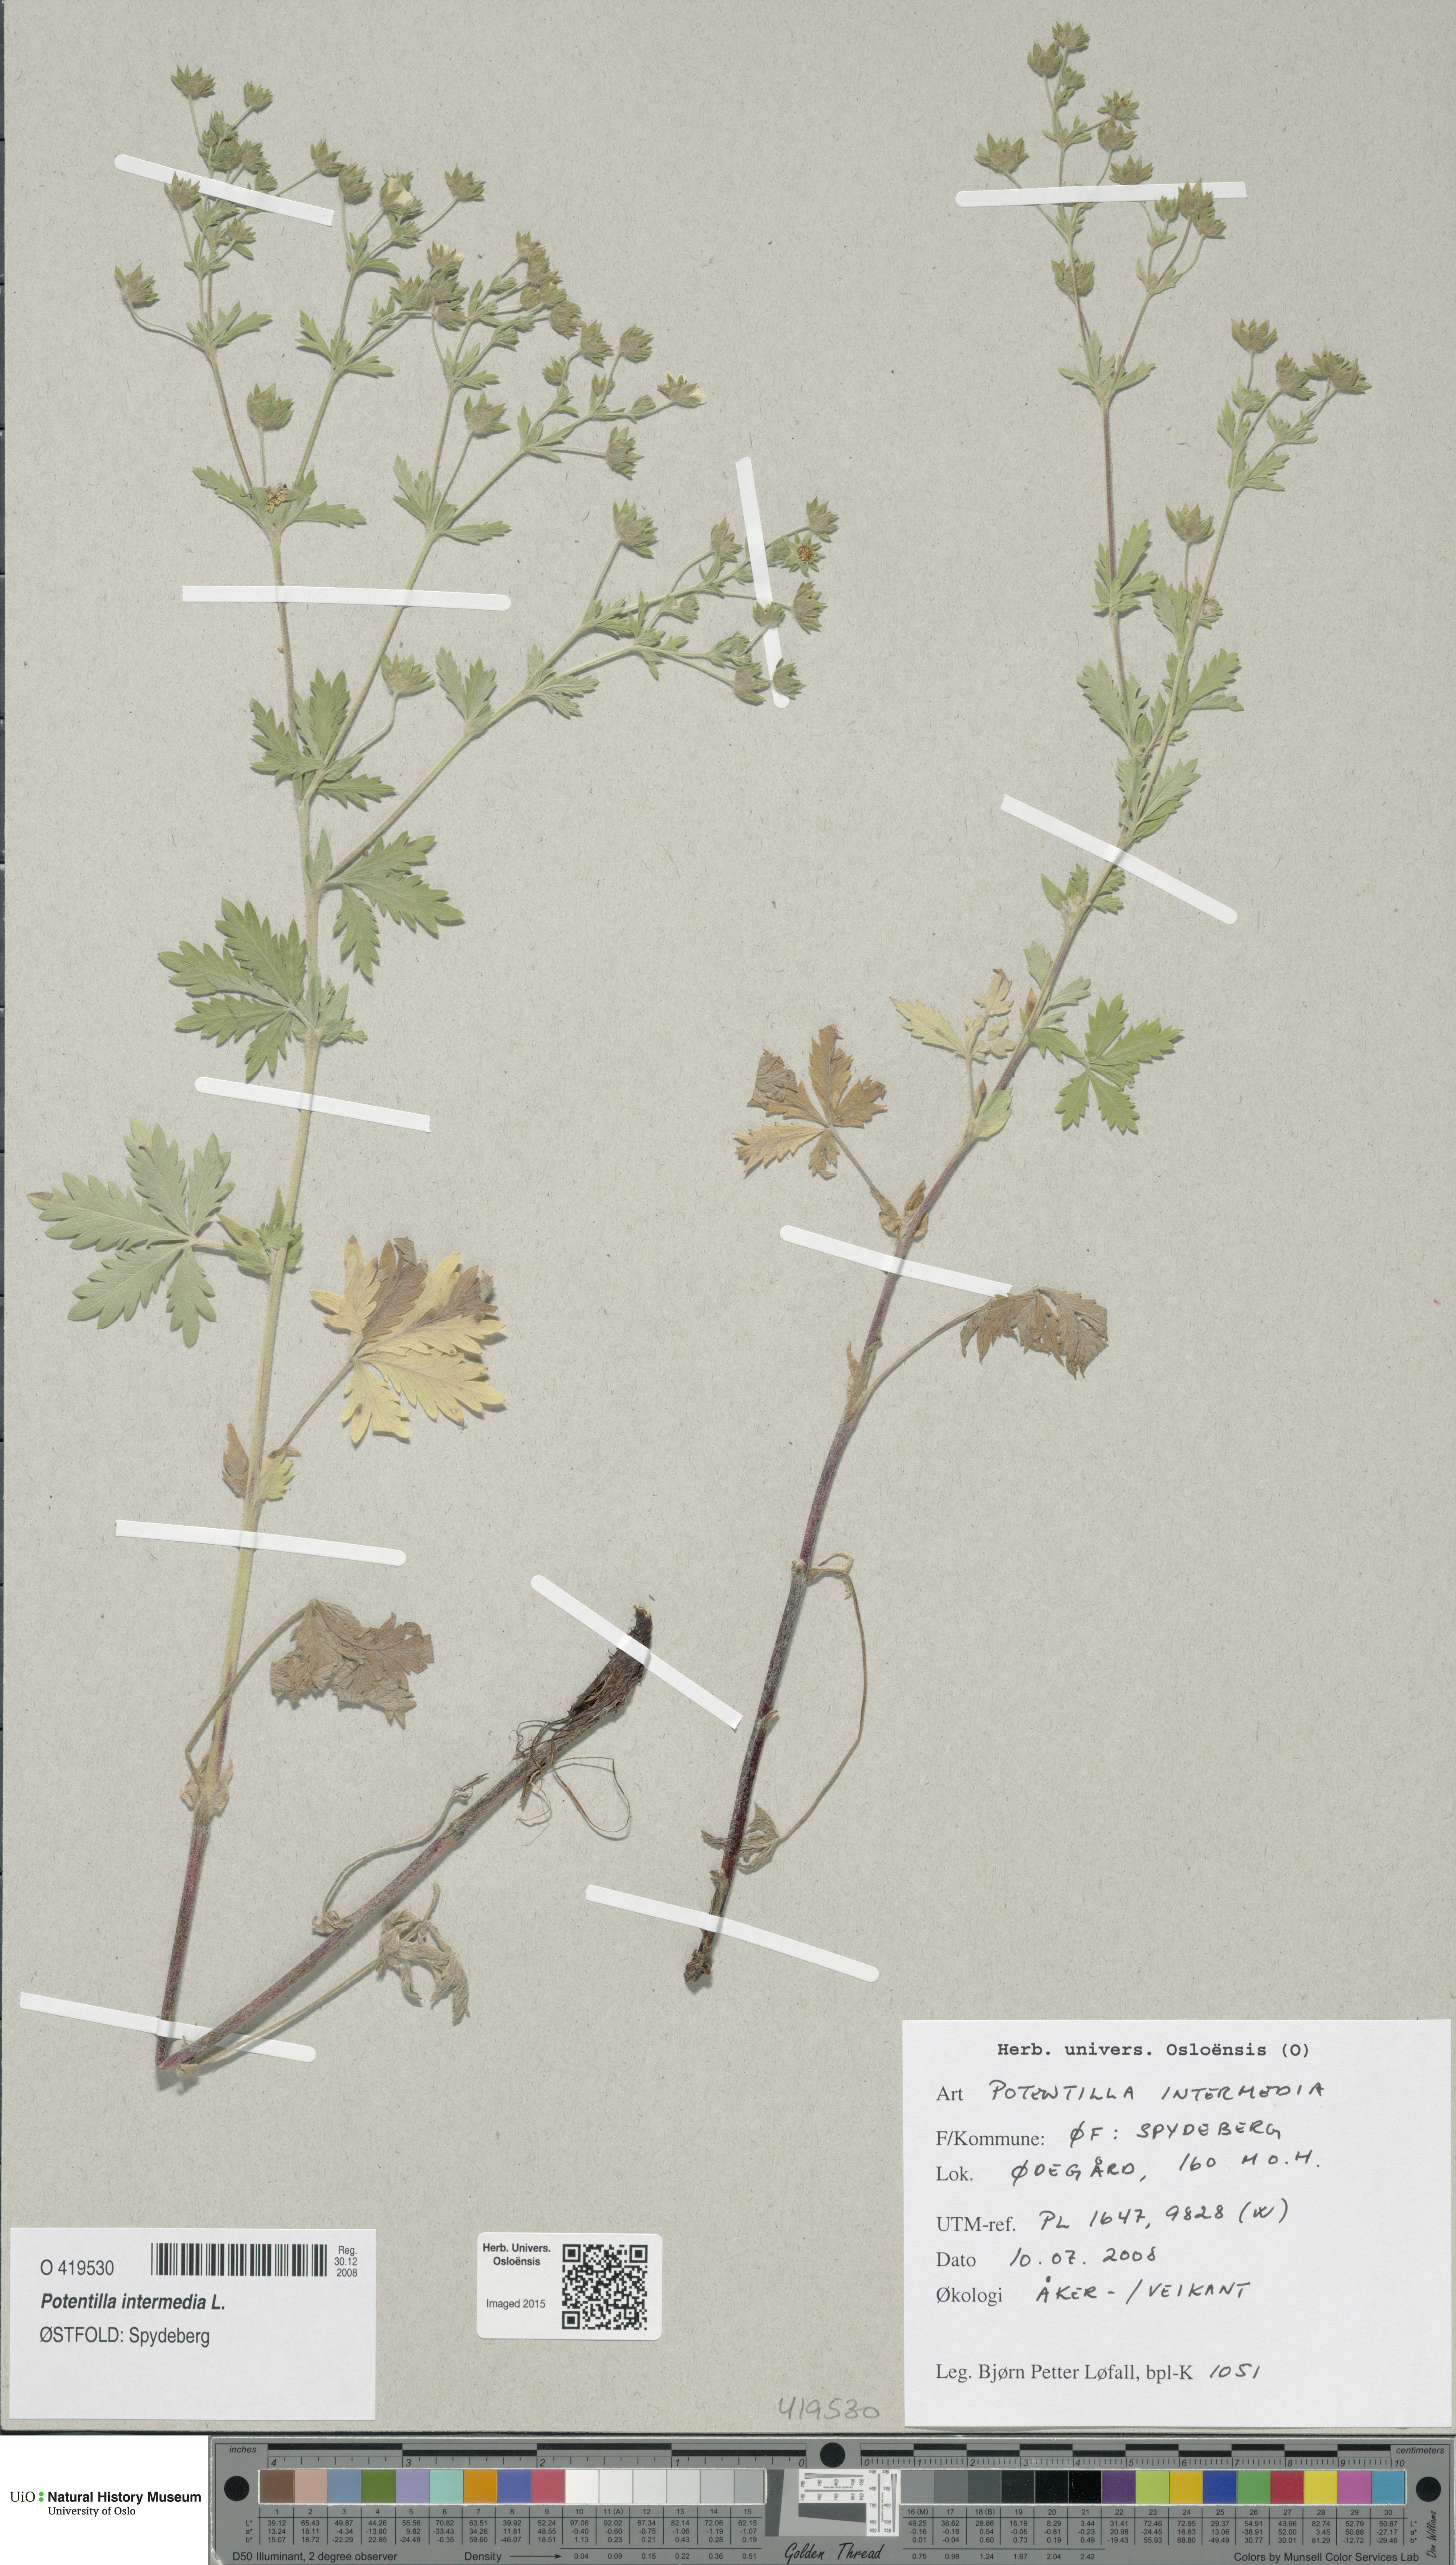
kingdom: Plantae
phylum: Tracheophyta
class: Magnoliopsida
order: Rosales
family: Rosaceae
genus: Potentilla
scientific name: Potentilla intermedia
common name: Downy cinquefoil
